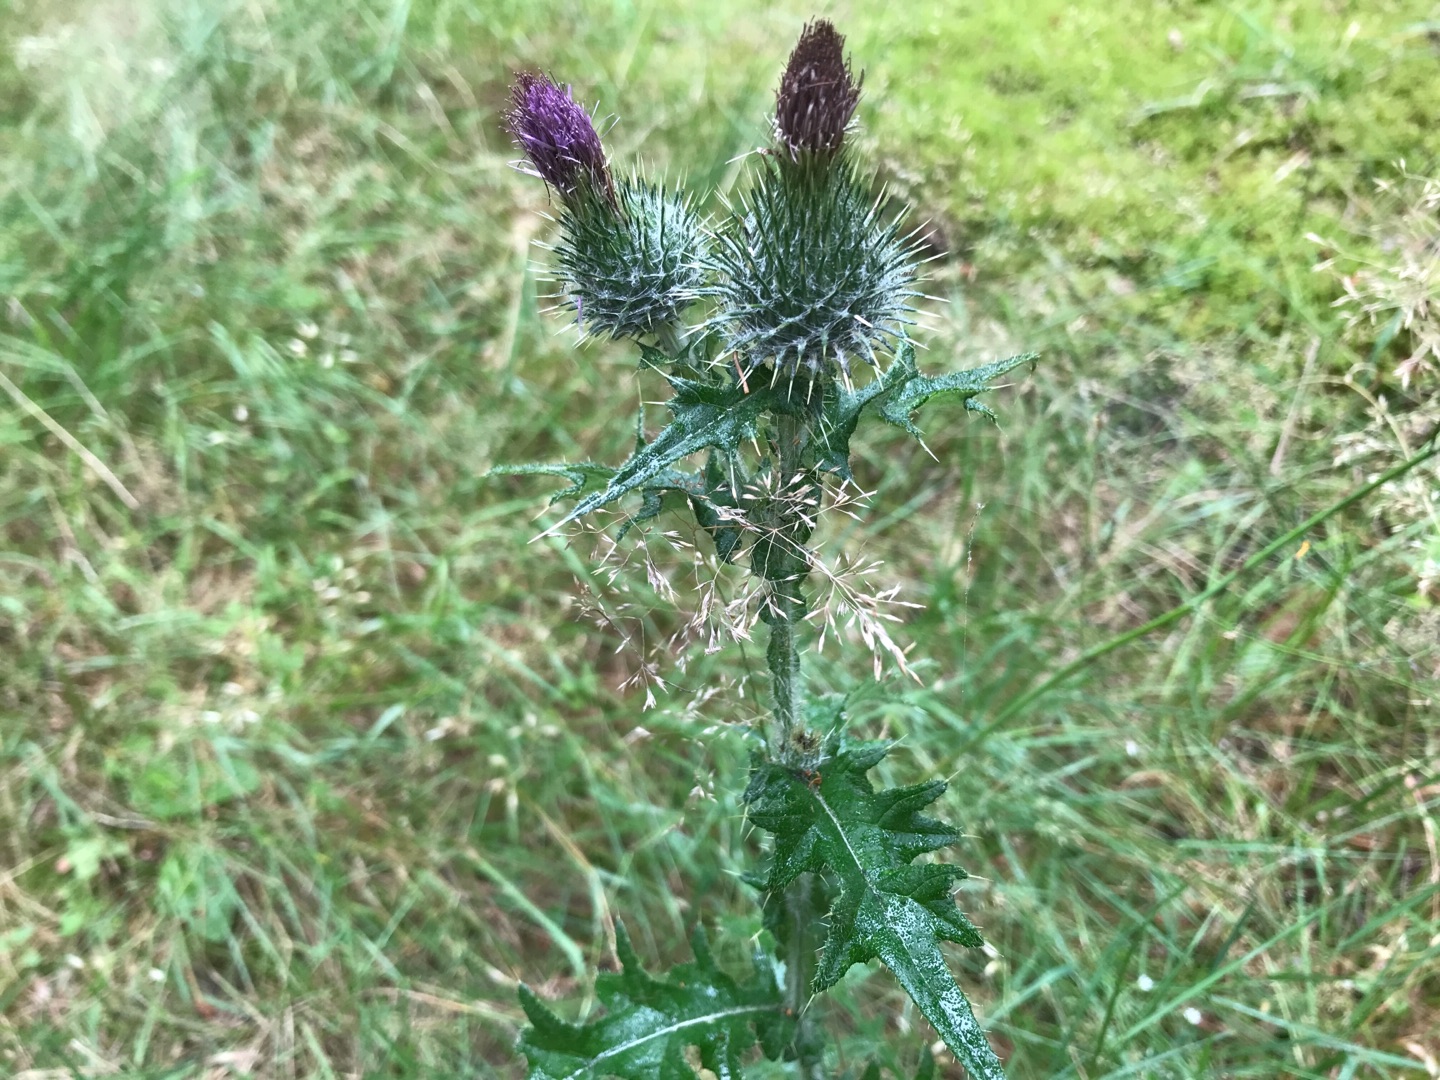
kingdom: Plantae
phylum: Tracheophyta
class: Magnoliopsida
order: Asterales
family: Asteraceae
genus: Cirsium
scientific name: Cirsium vulgare
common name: Horse-tidsel
